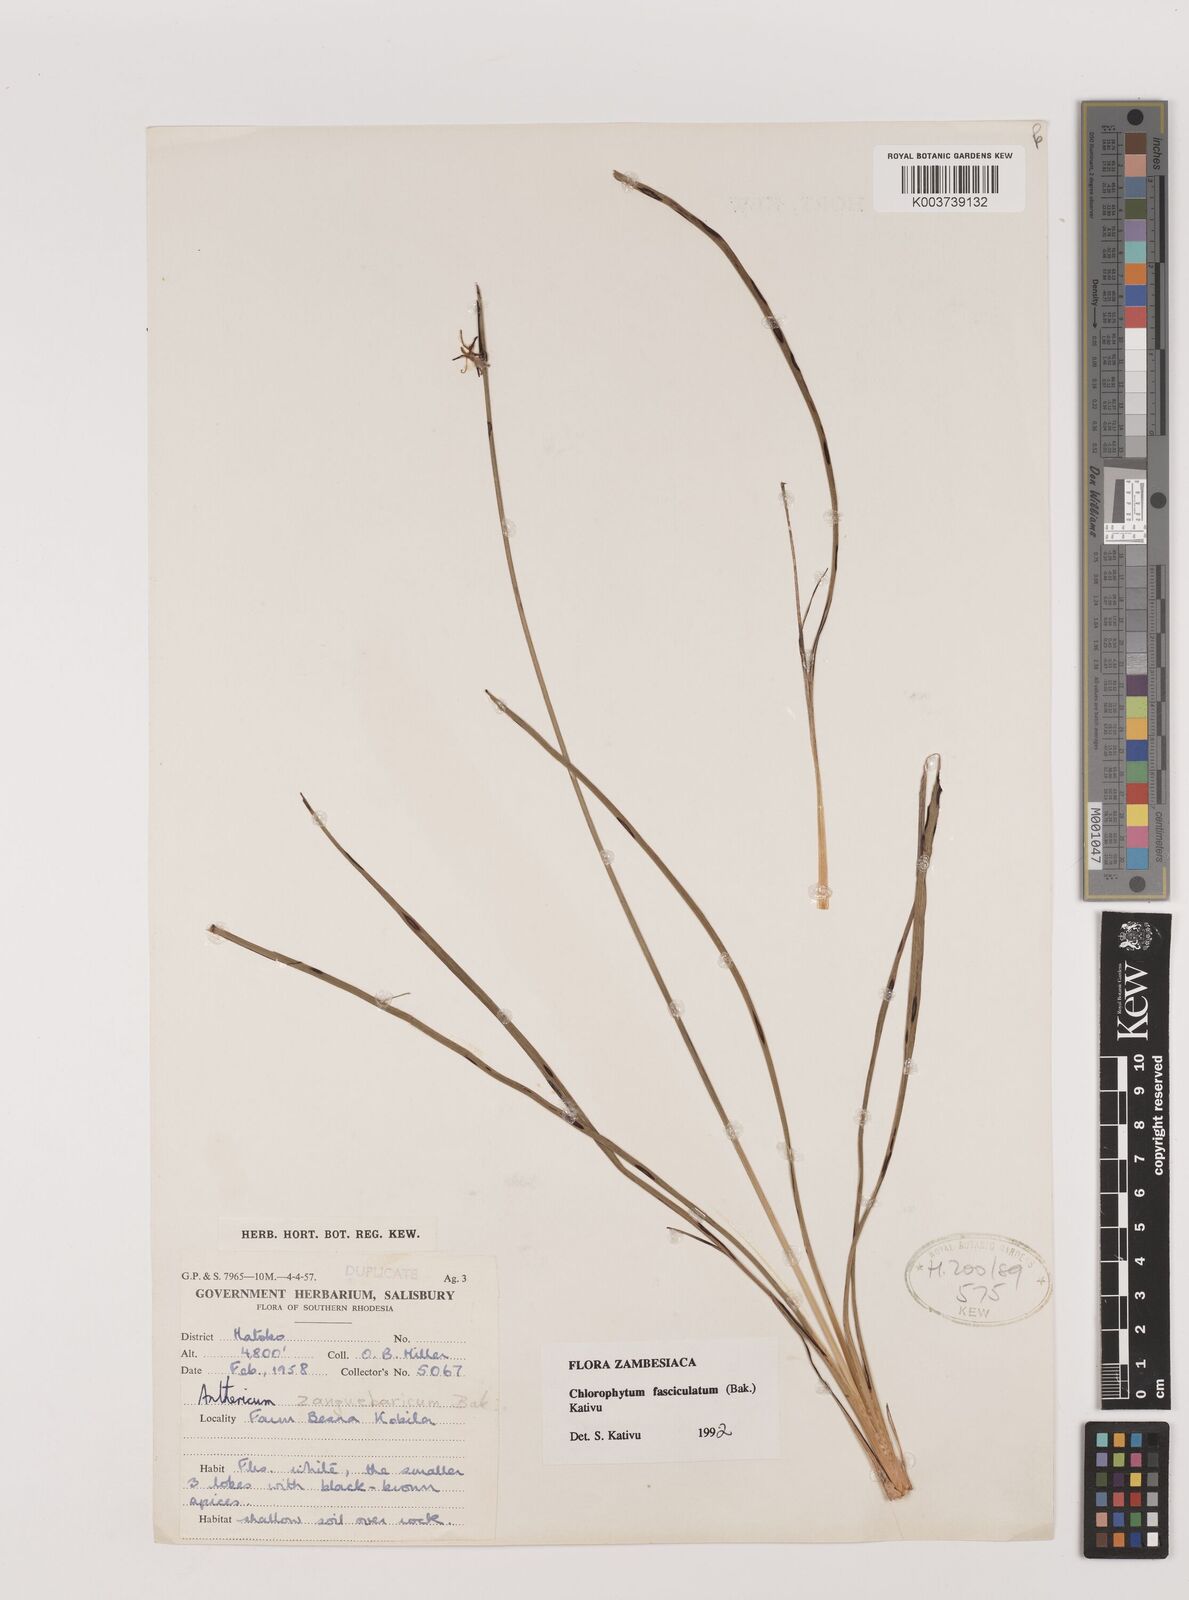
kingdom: Plantae
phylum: Tracheophyta
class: Liliopsida
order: Asparagales
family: Asparagaceae
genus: Chlorophytum
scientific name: Chlorophytum fasciculatum
